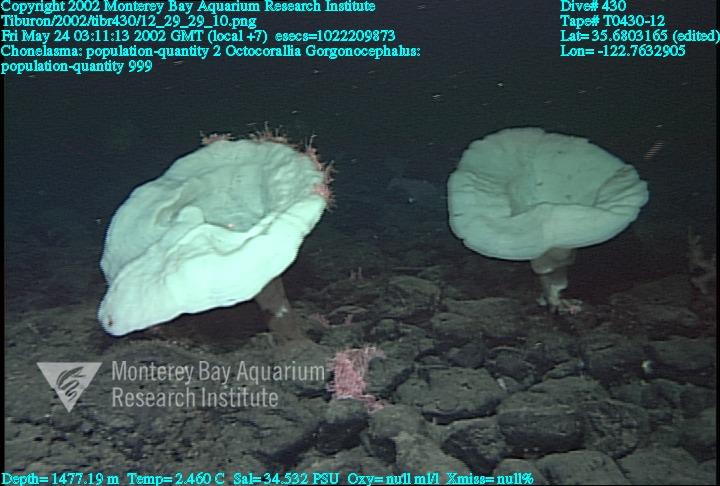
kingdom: Animalia
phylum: Porifera
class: Hexactinellida
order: Sceptrulophora
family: Euretidae
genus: Chonelasma
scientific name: Chonelasma
